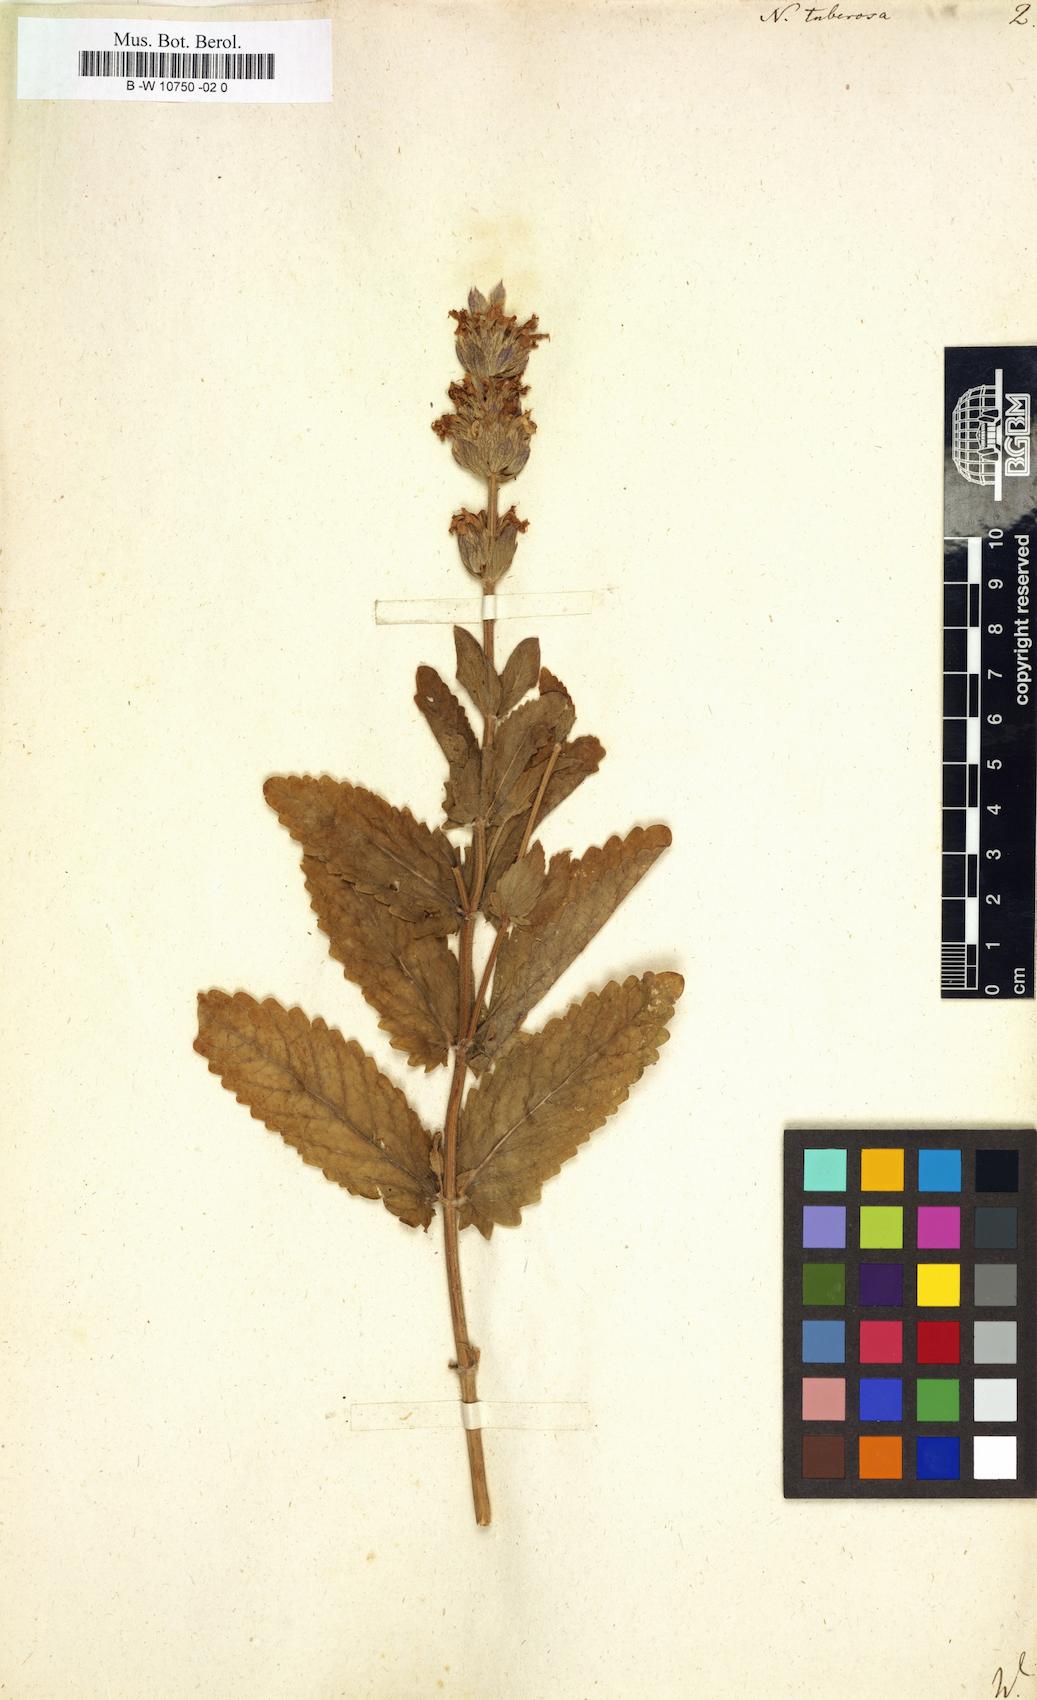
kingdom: Plantae
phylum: Tracheophyta
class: Magnoliopsida
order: Lamiales
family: Lamiaceae
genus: Nepeta
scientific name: Nepeta tuberosa
